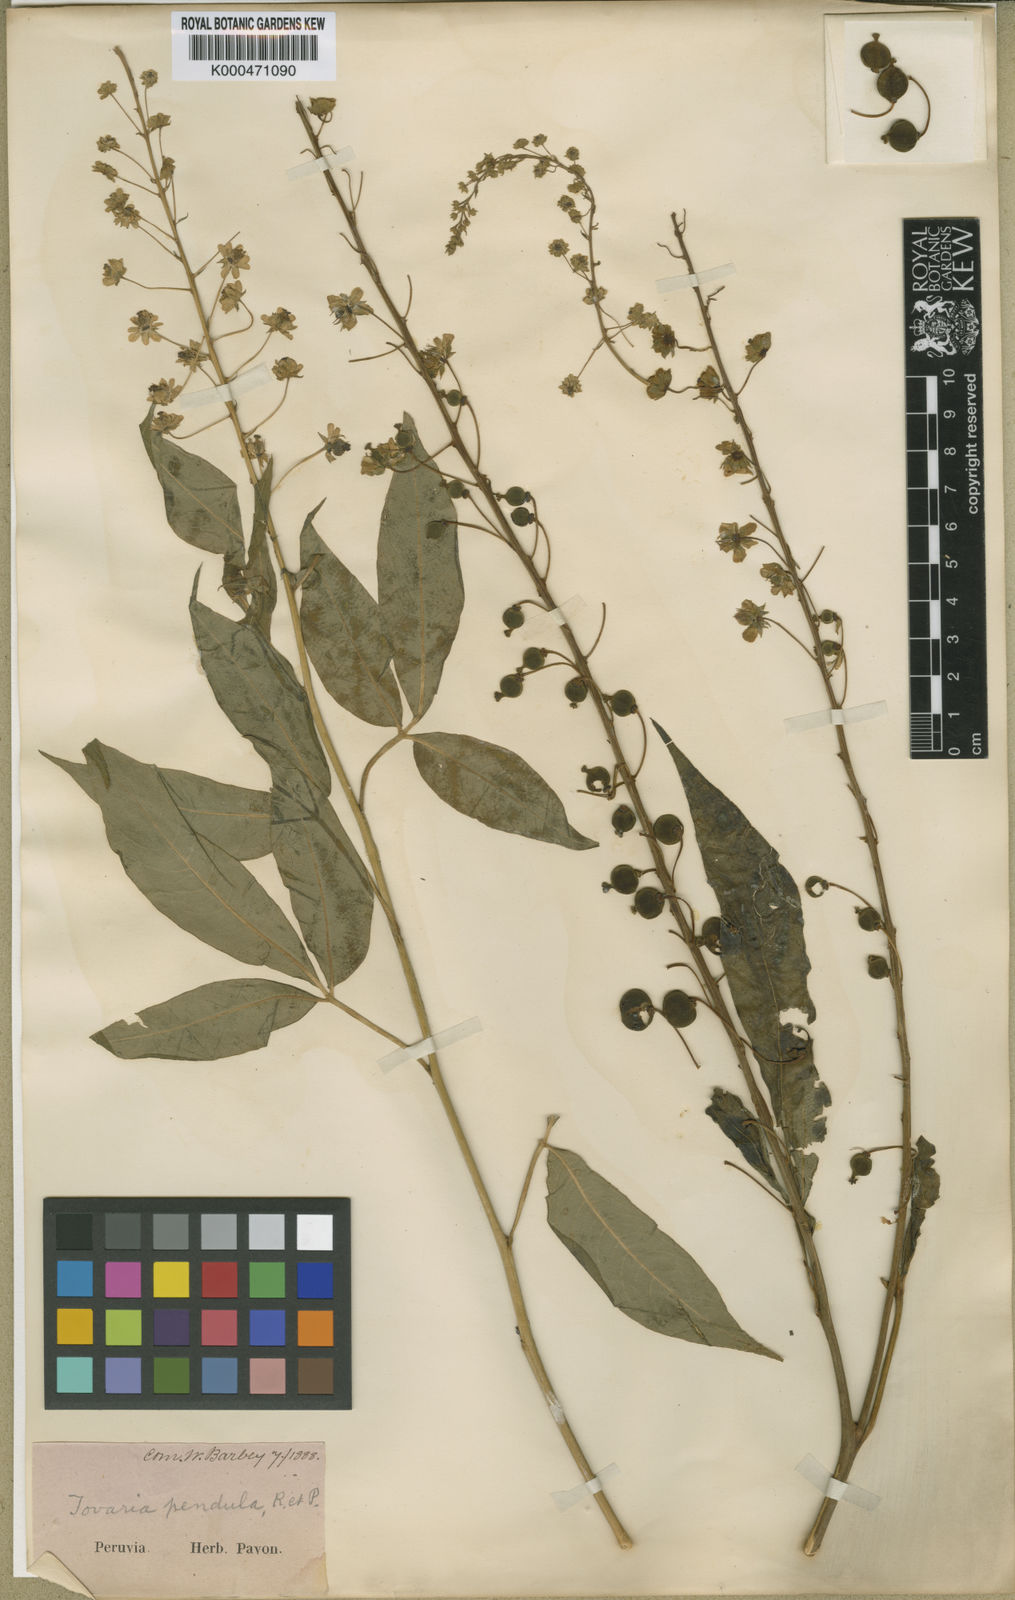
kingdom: Plantae
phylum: Tracheophyta
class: Magnoliopsida
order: Brassicales
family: Tovariaceae
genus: Tovaria
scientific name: Tovaria
